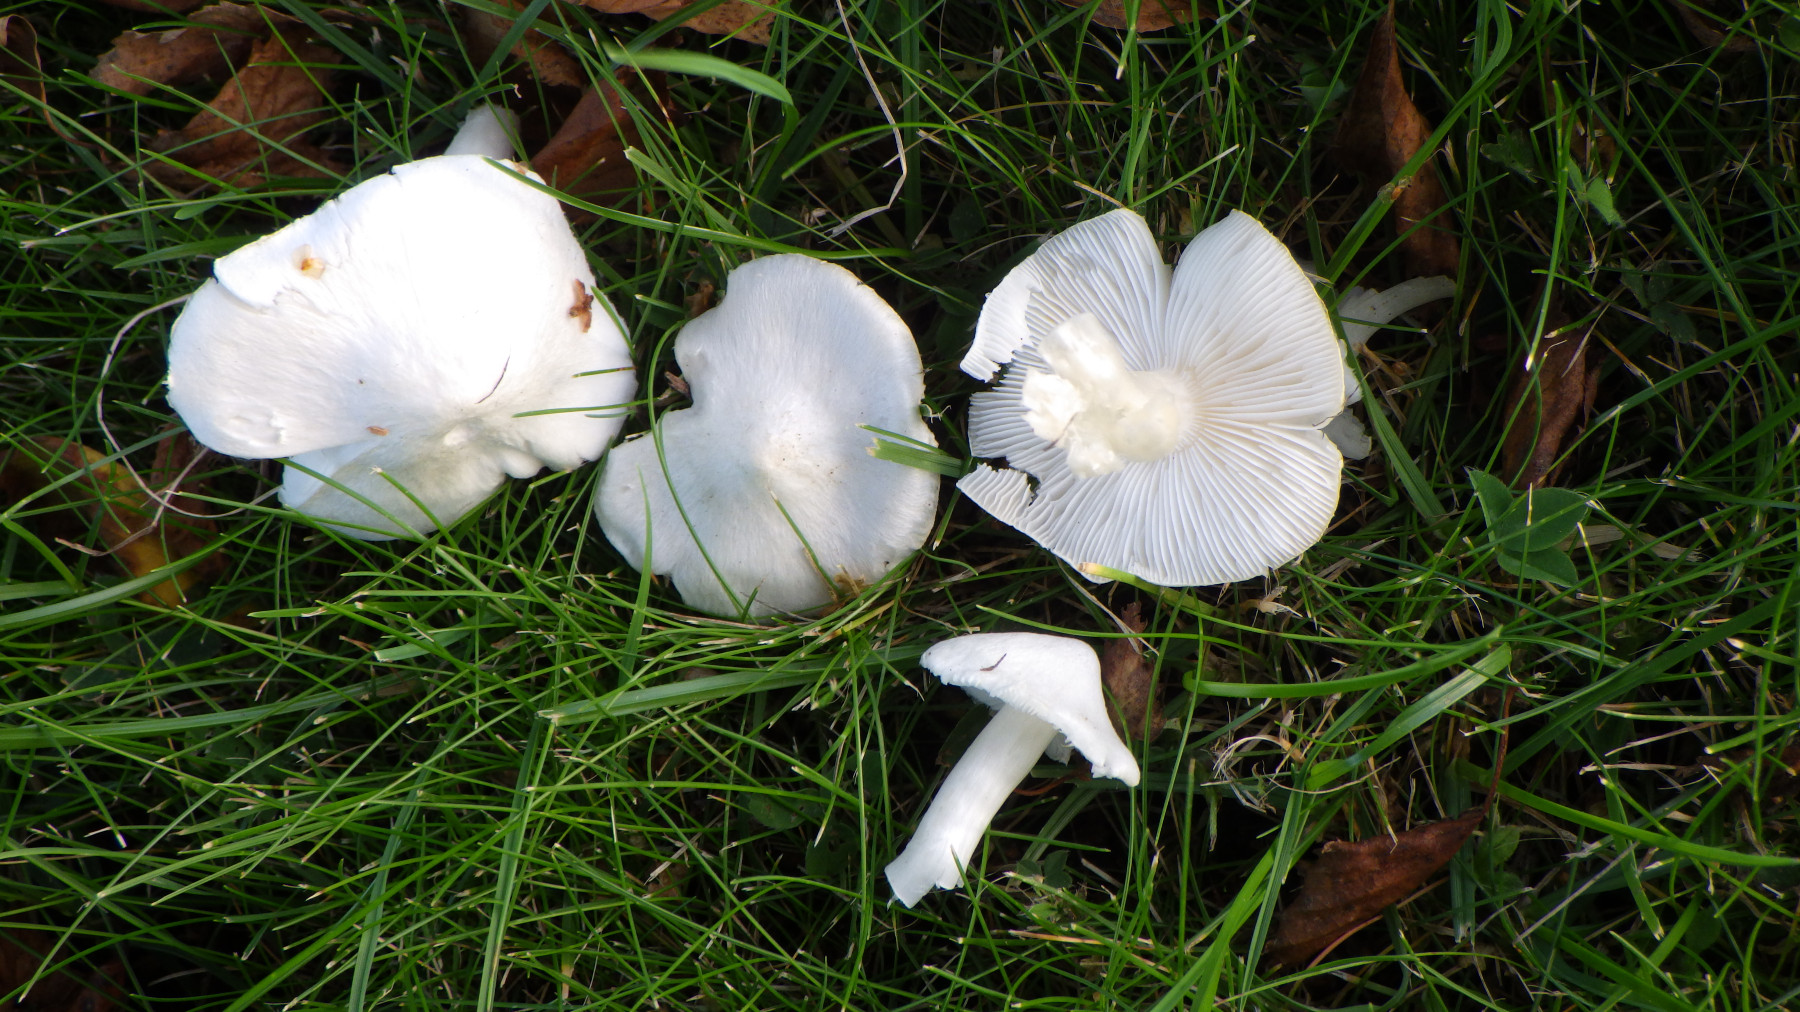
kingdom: Fungi
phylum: Basidiomycota
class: Agaricomycetes
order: Agaricales
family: Tricholomataceae
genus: Tricholoma
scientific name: Tricholoma argyraceum
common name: slør-ridderhat
